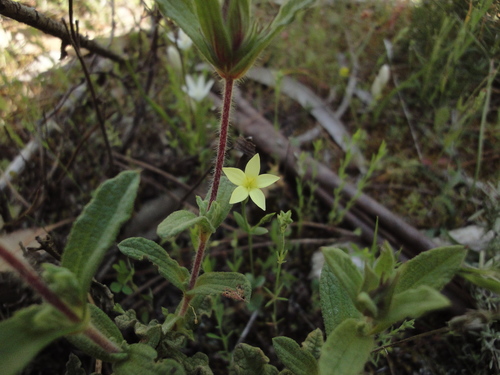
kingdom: Plantae
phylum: Tracheophyta
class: Magnoliopsida
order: Gentianales
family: Gentianaceae
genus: Centaurium
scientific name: Centaurium maritimum
